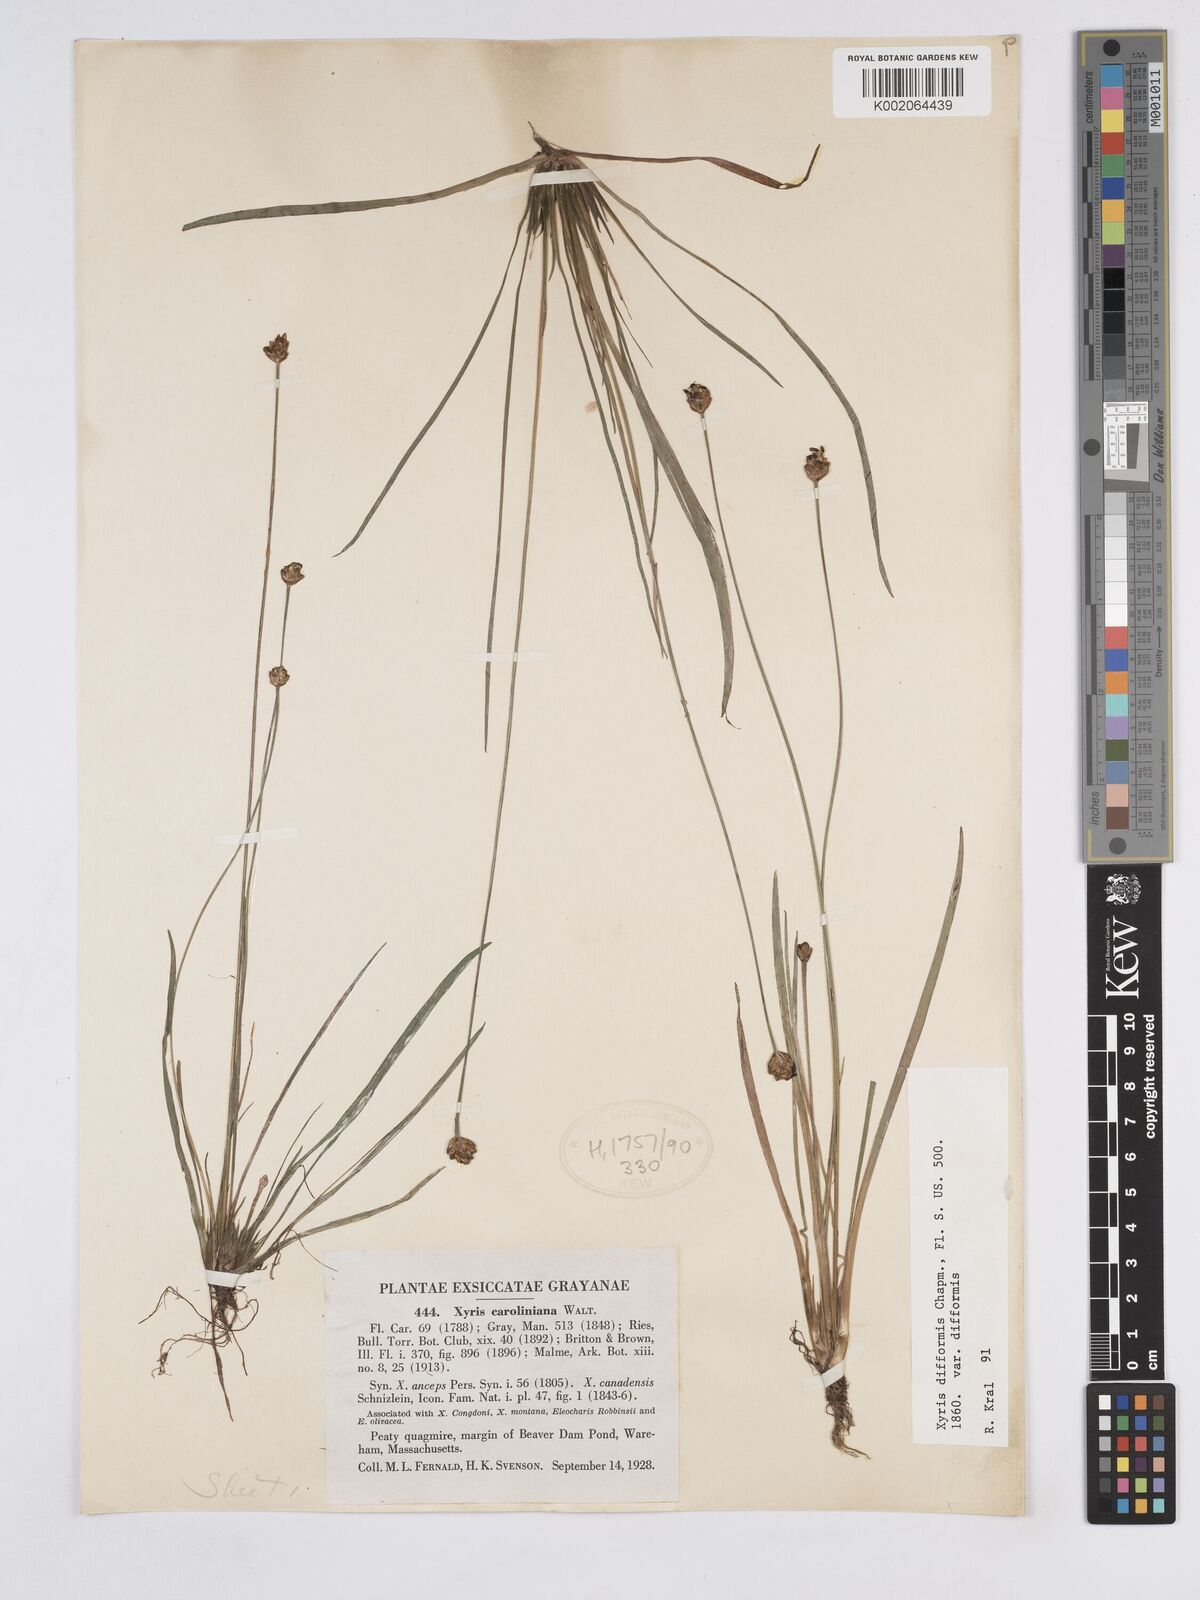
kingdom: Plantae
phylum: Tracheophyta
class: Liliopsida
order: Poales
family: Xyridaceae
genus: Xyris
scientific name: Xyris difformis
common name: Bog yellow-eyed-grass
